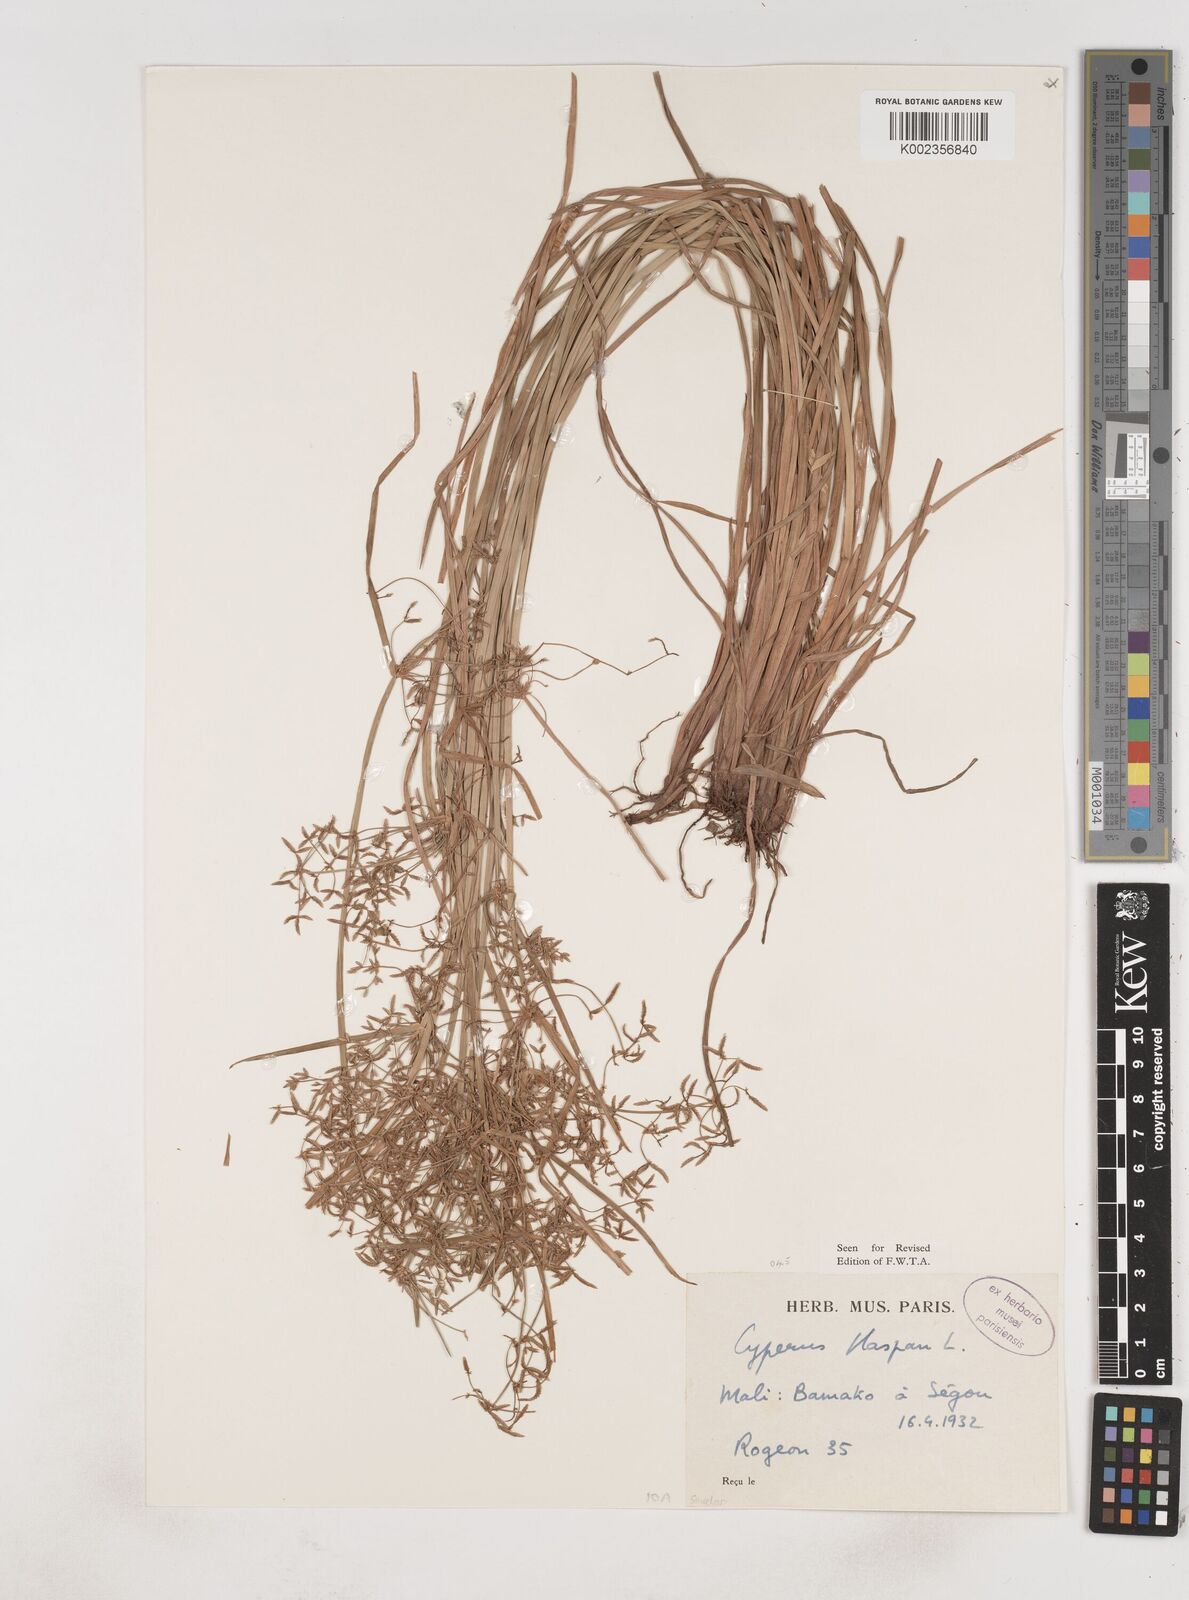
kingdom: Plantae
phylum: Tracheophyta
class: Liliopsida
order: Poales
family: Cyperaceae
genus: Cyperus
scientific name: Cyperus haspan
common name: Haspan flatsedge
